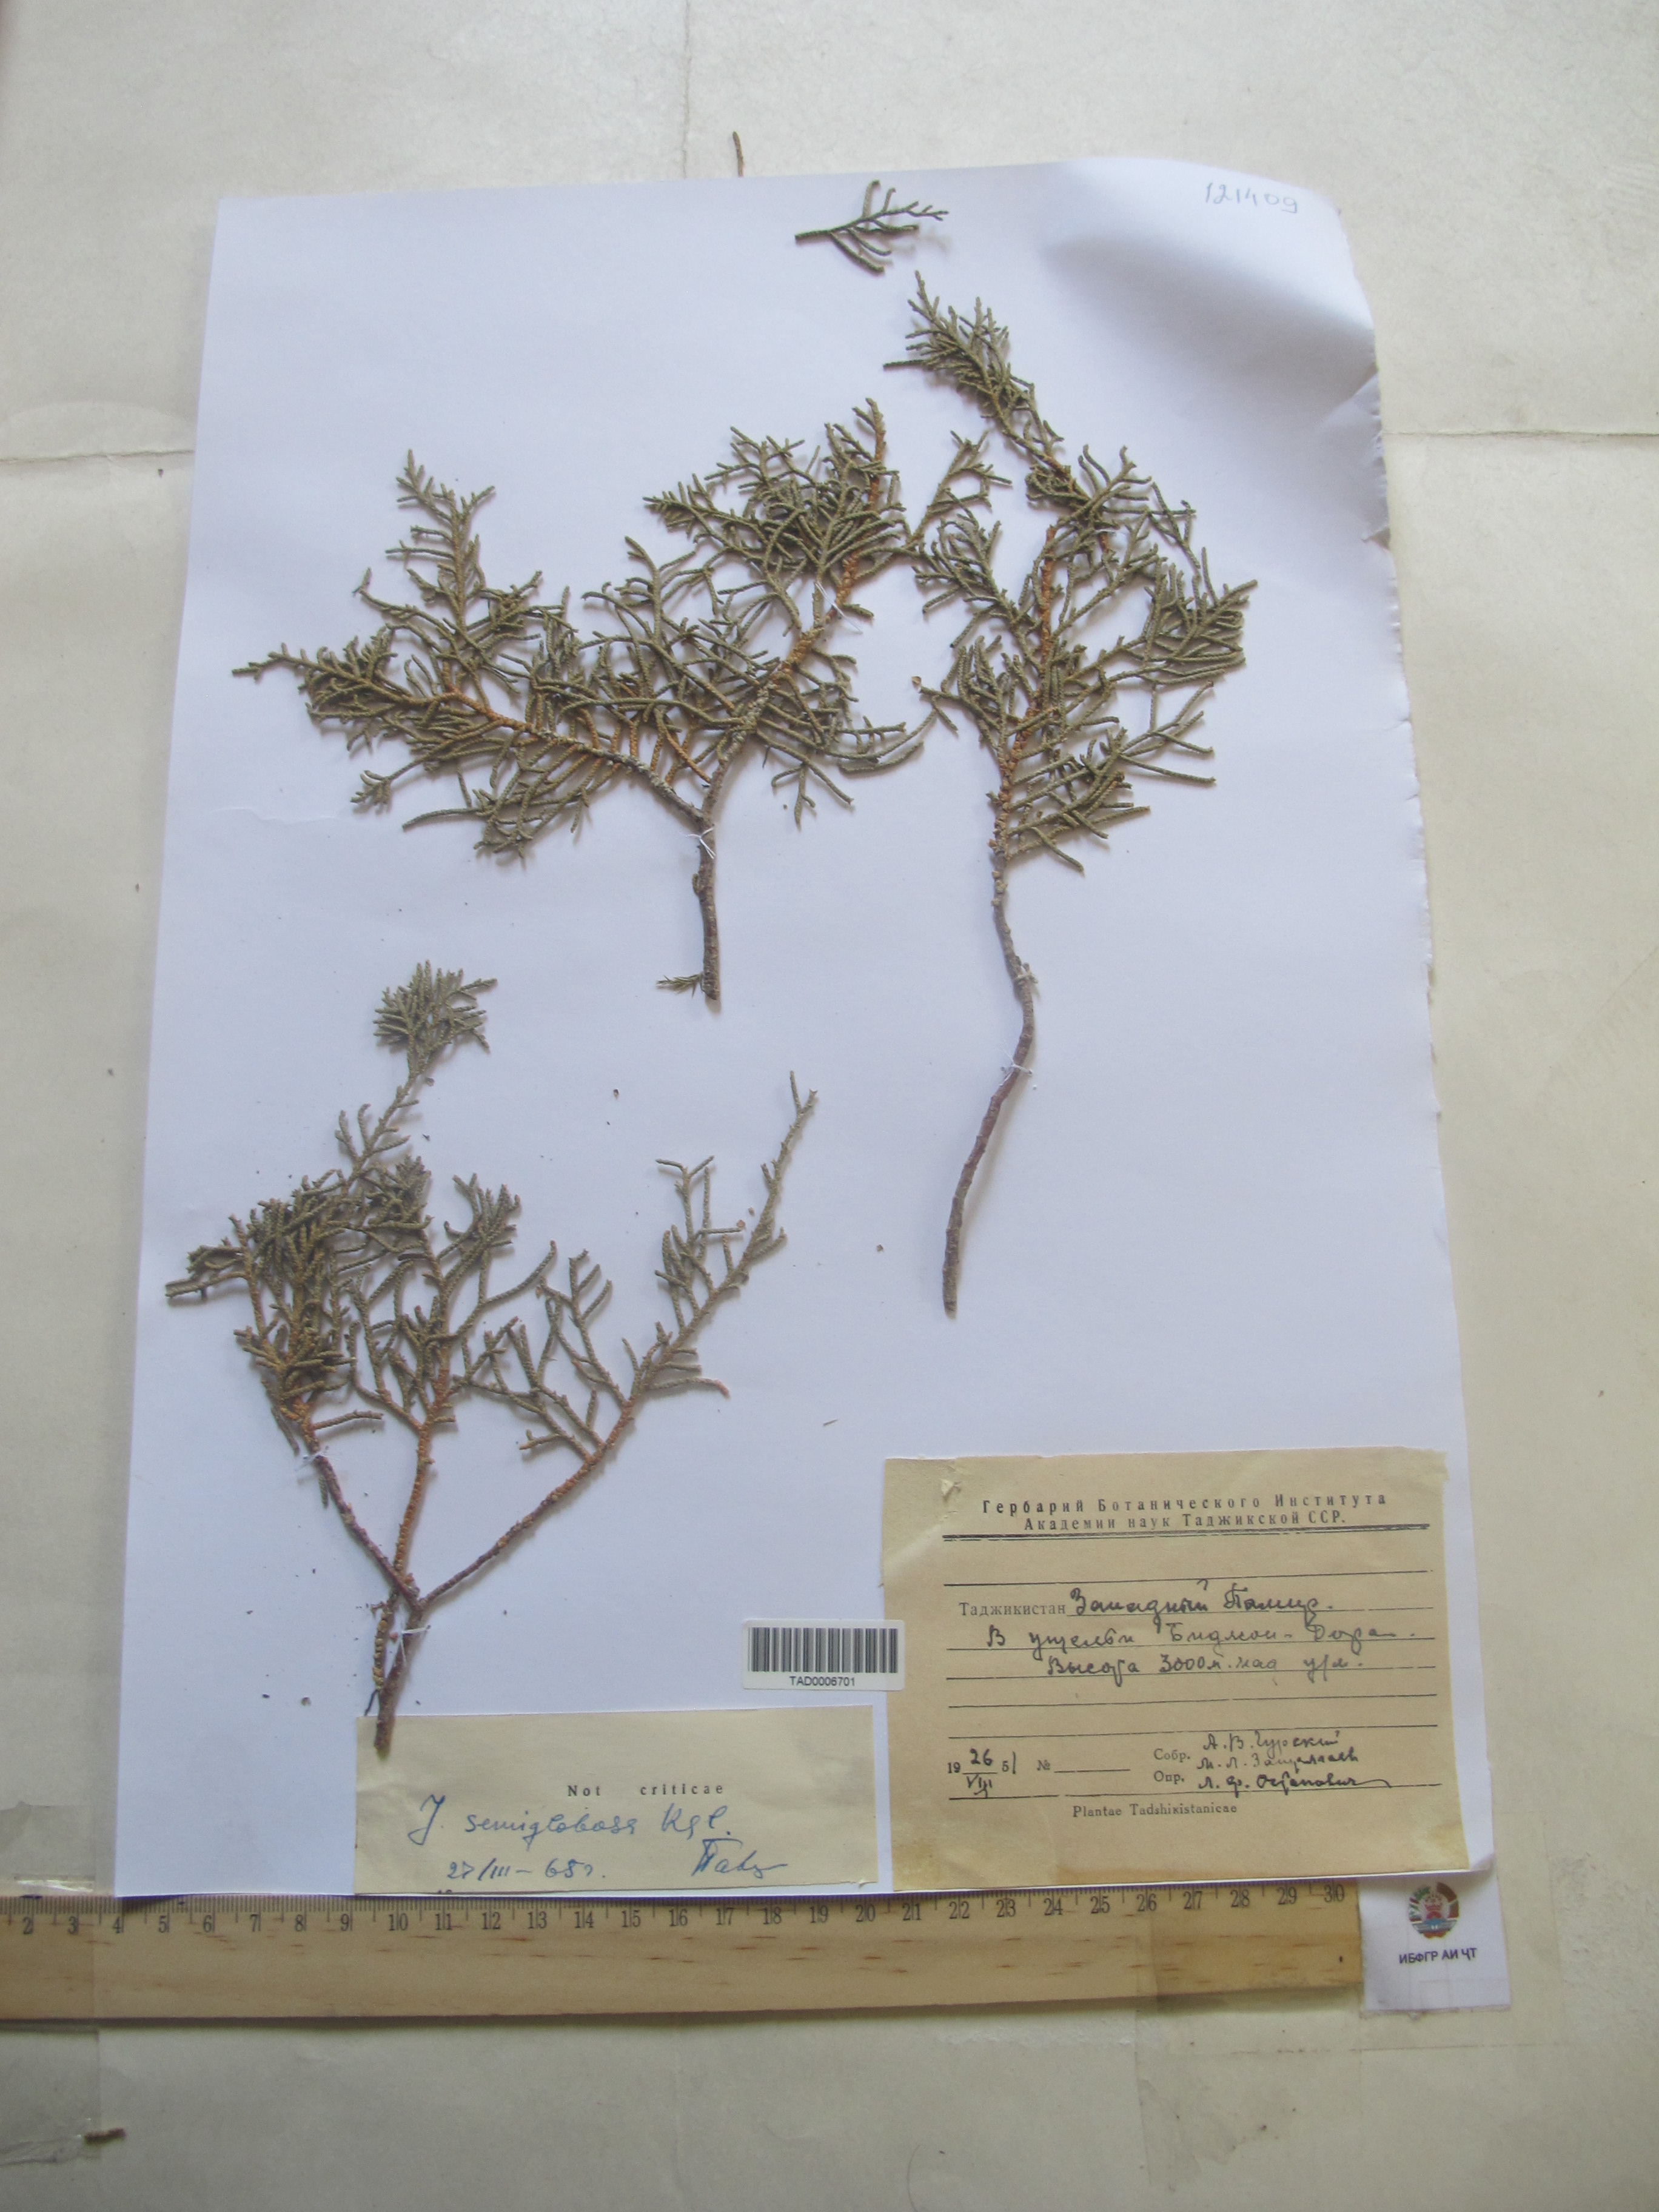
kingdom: Plantae
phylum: Tracheophyta
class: Pinopsida
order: Pinales
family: Cupressaceae
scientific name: Cupressaceae
